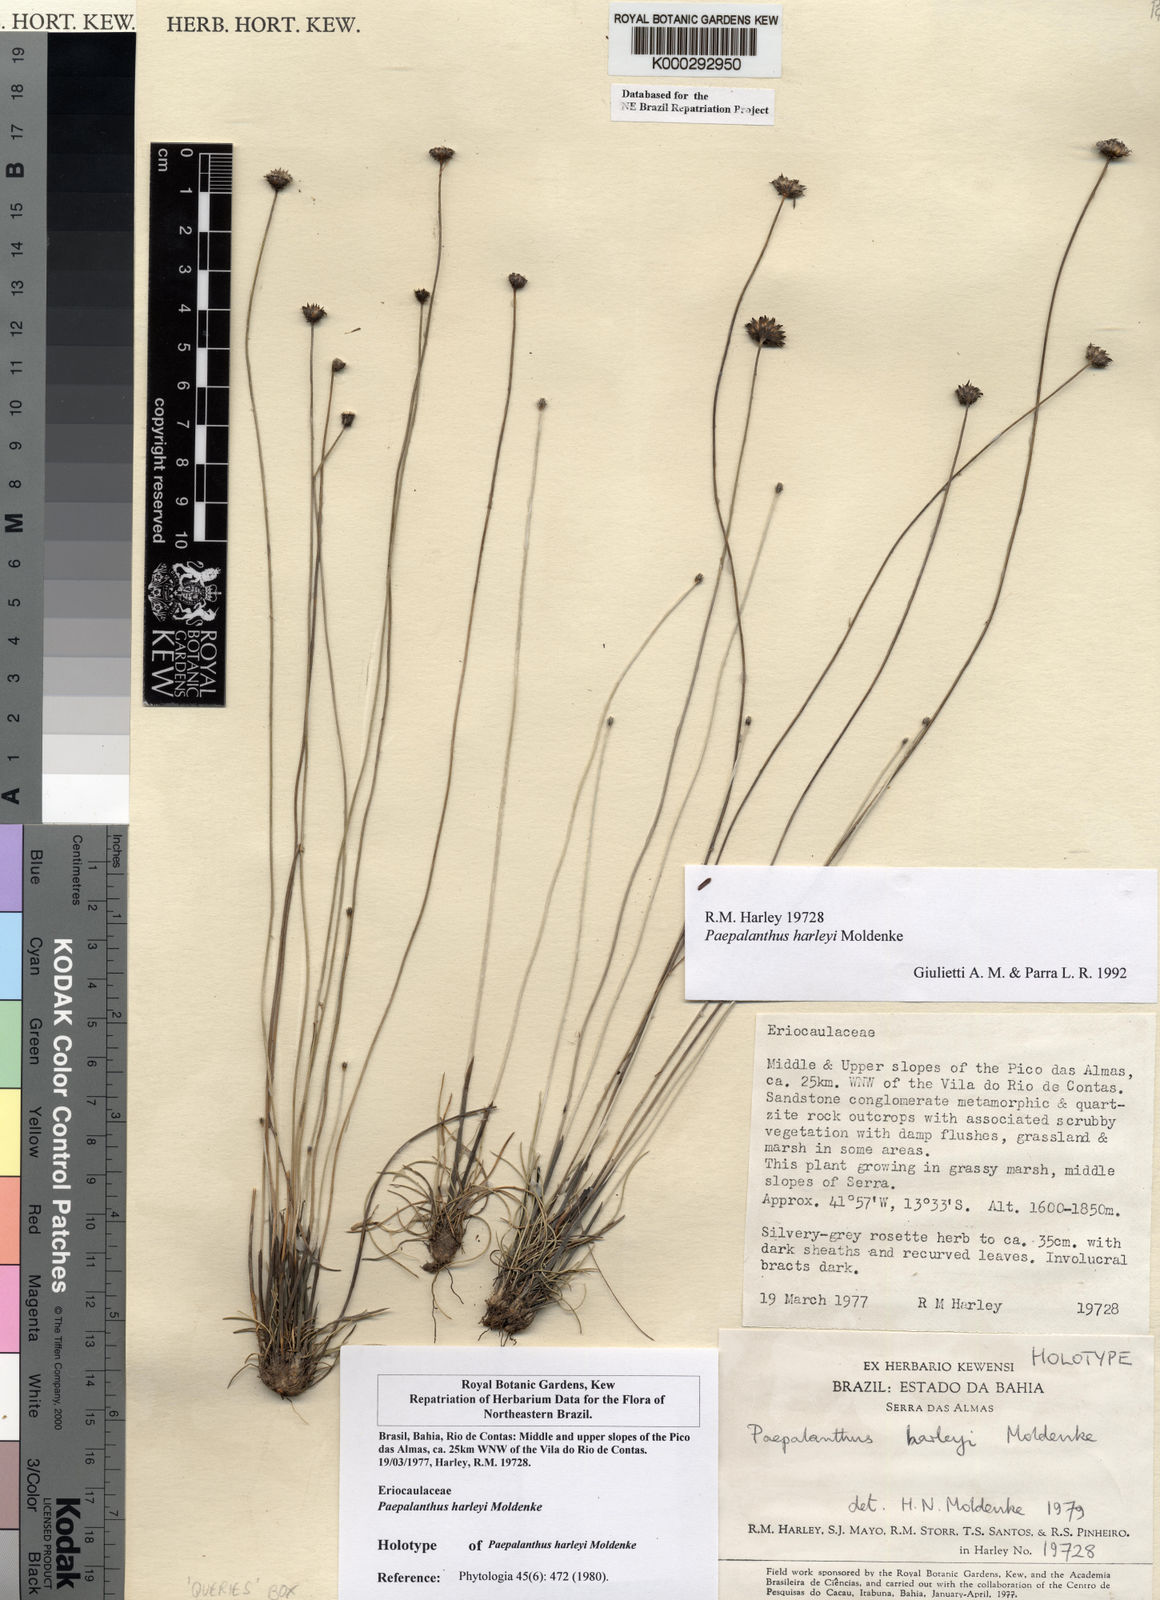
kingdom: Plantae
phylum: Tracheophyta
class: Liliopsida
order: Poales
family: Eriocaulaceae
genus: Paepalanthus
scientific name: Paepalanthus harleyi
